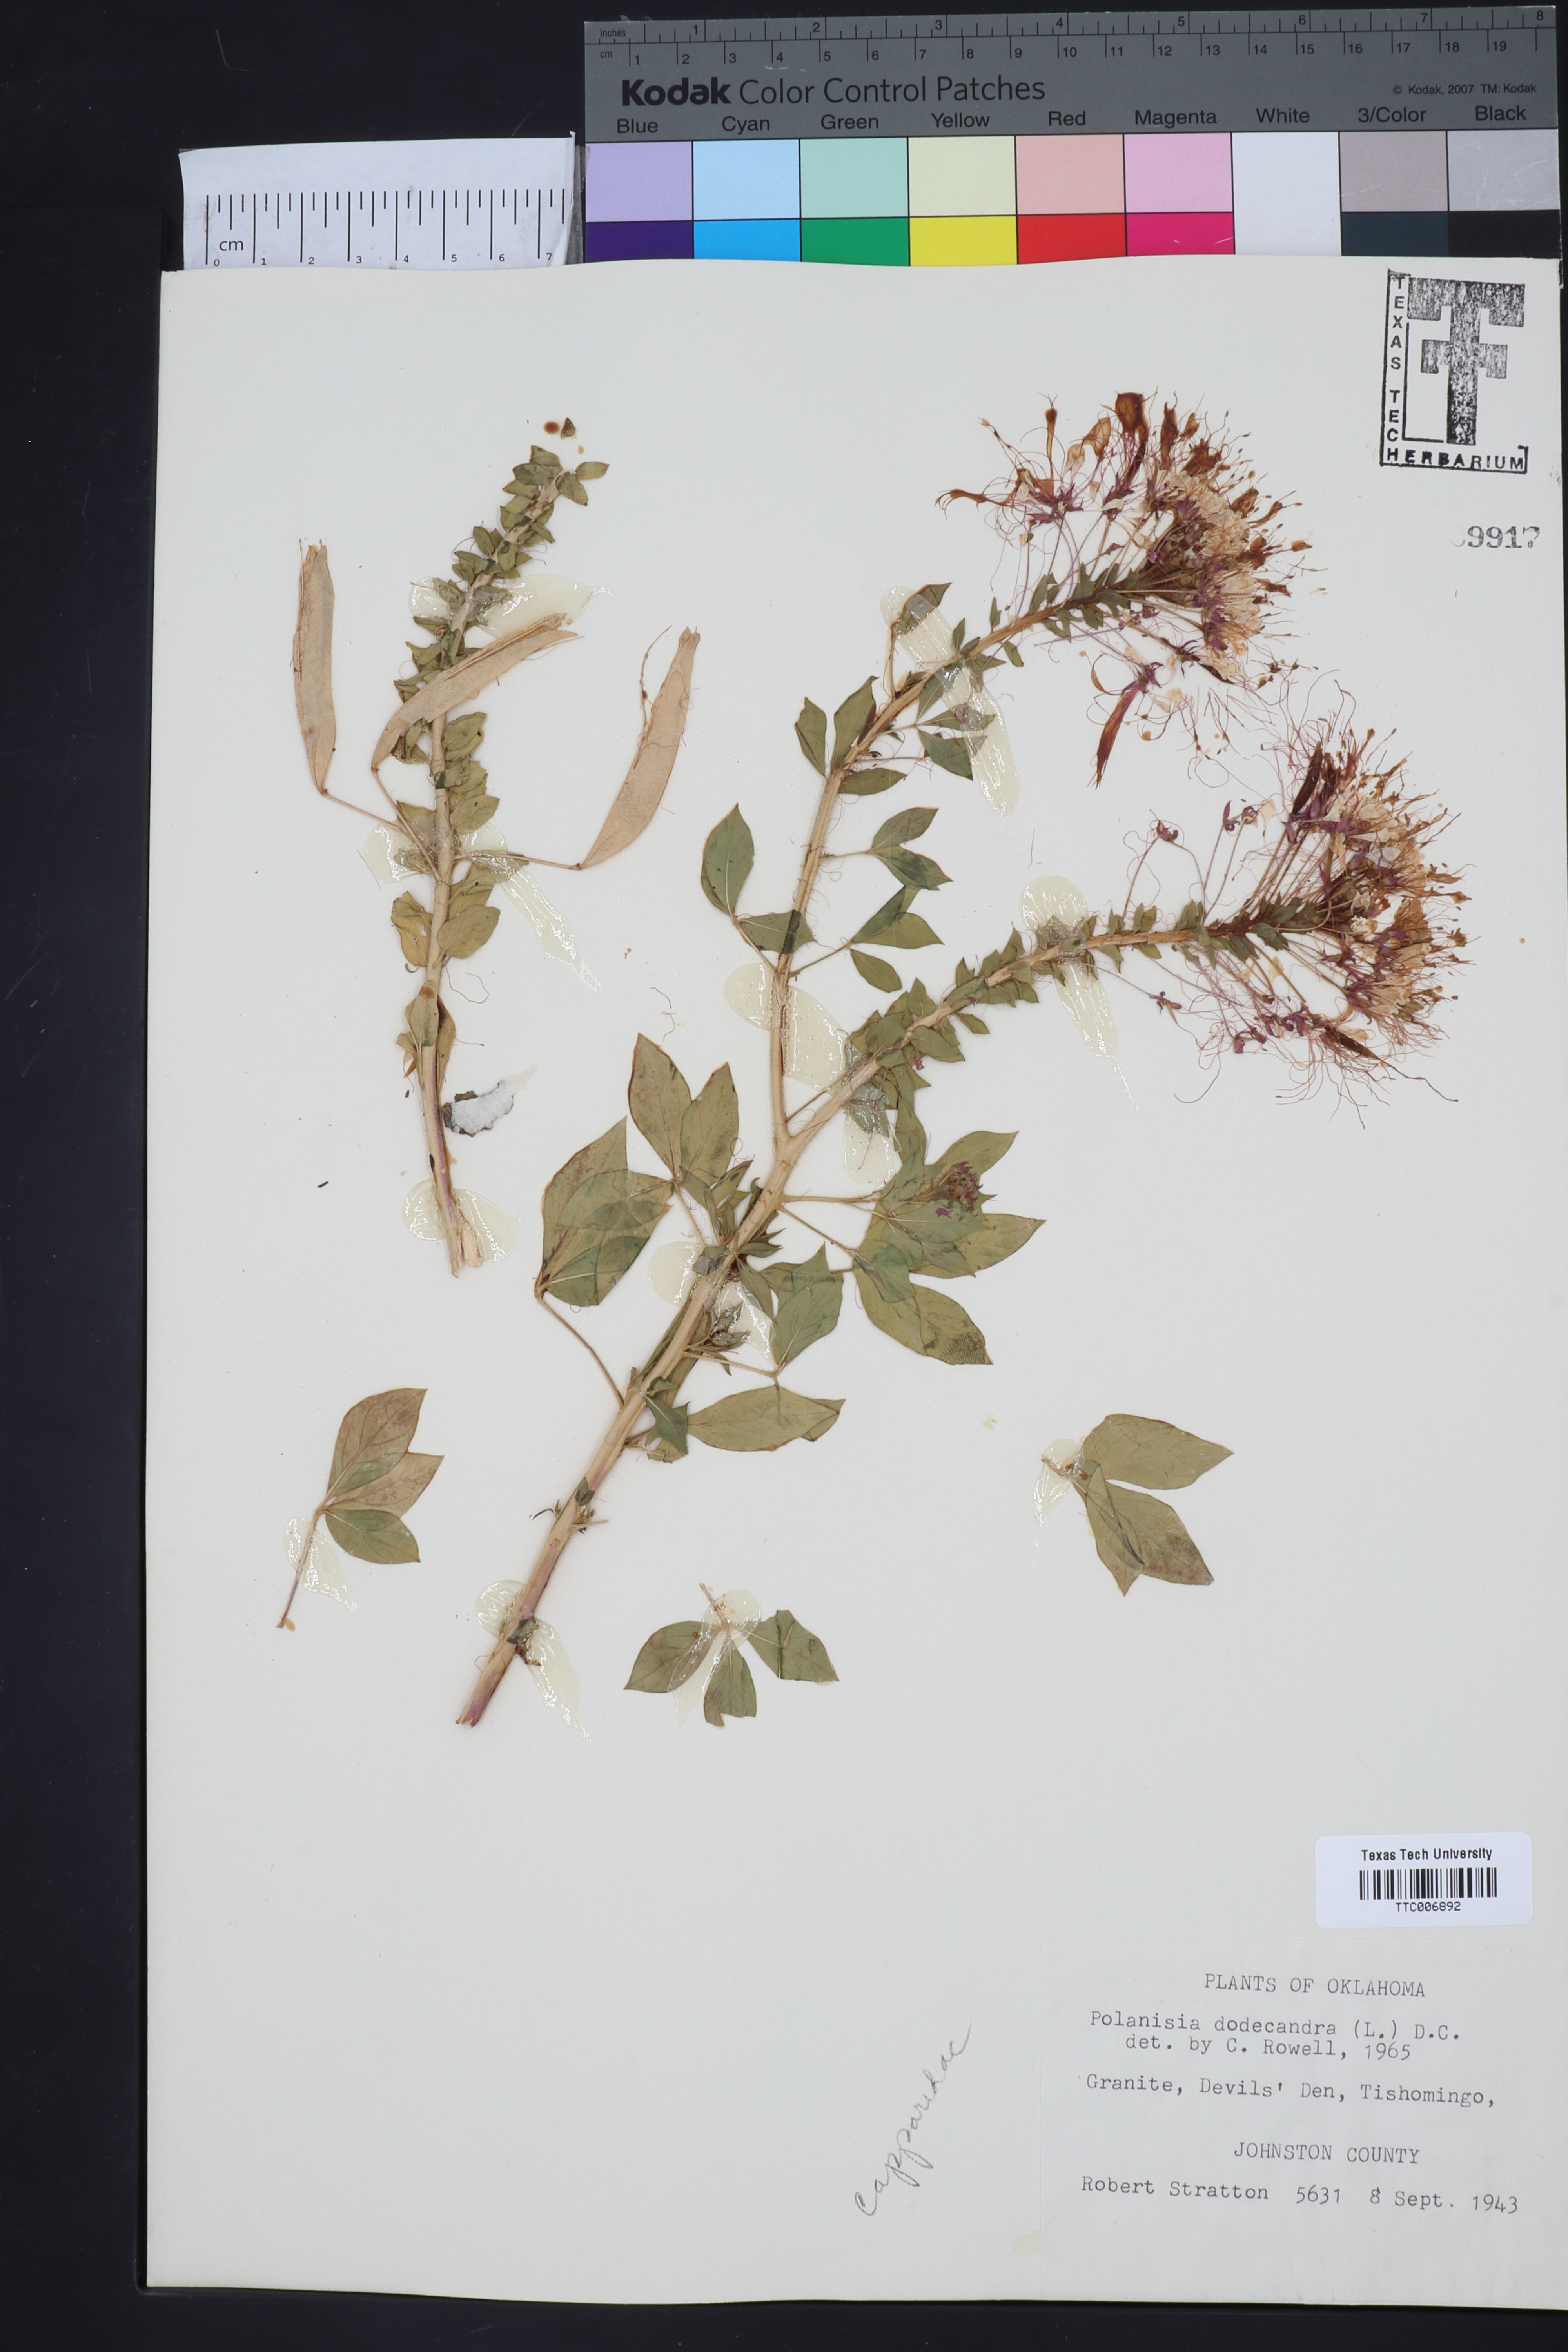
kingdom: Plantae
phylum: Tracheophyta
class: Magnoliopsida
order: Brassicales
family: Cleomaceae
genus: Polanisia
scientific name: Polanisia dodecandra
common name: Clammyweed
